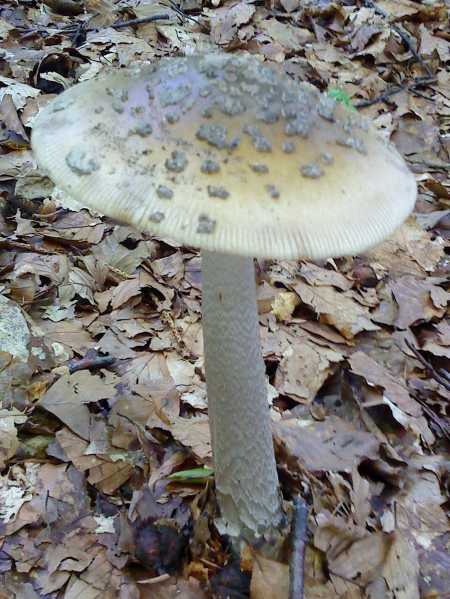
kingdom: Fungi
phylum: Basidiomycota
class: Agaricomycetes
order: Agaricales
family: Amanitaceae
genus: Amanita
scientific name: Amanita ceciliae
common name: stor kam-fluesvamp
